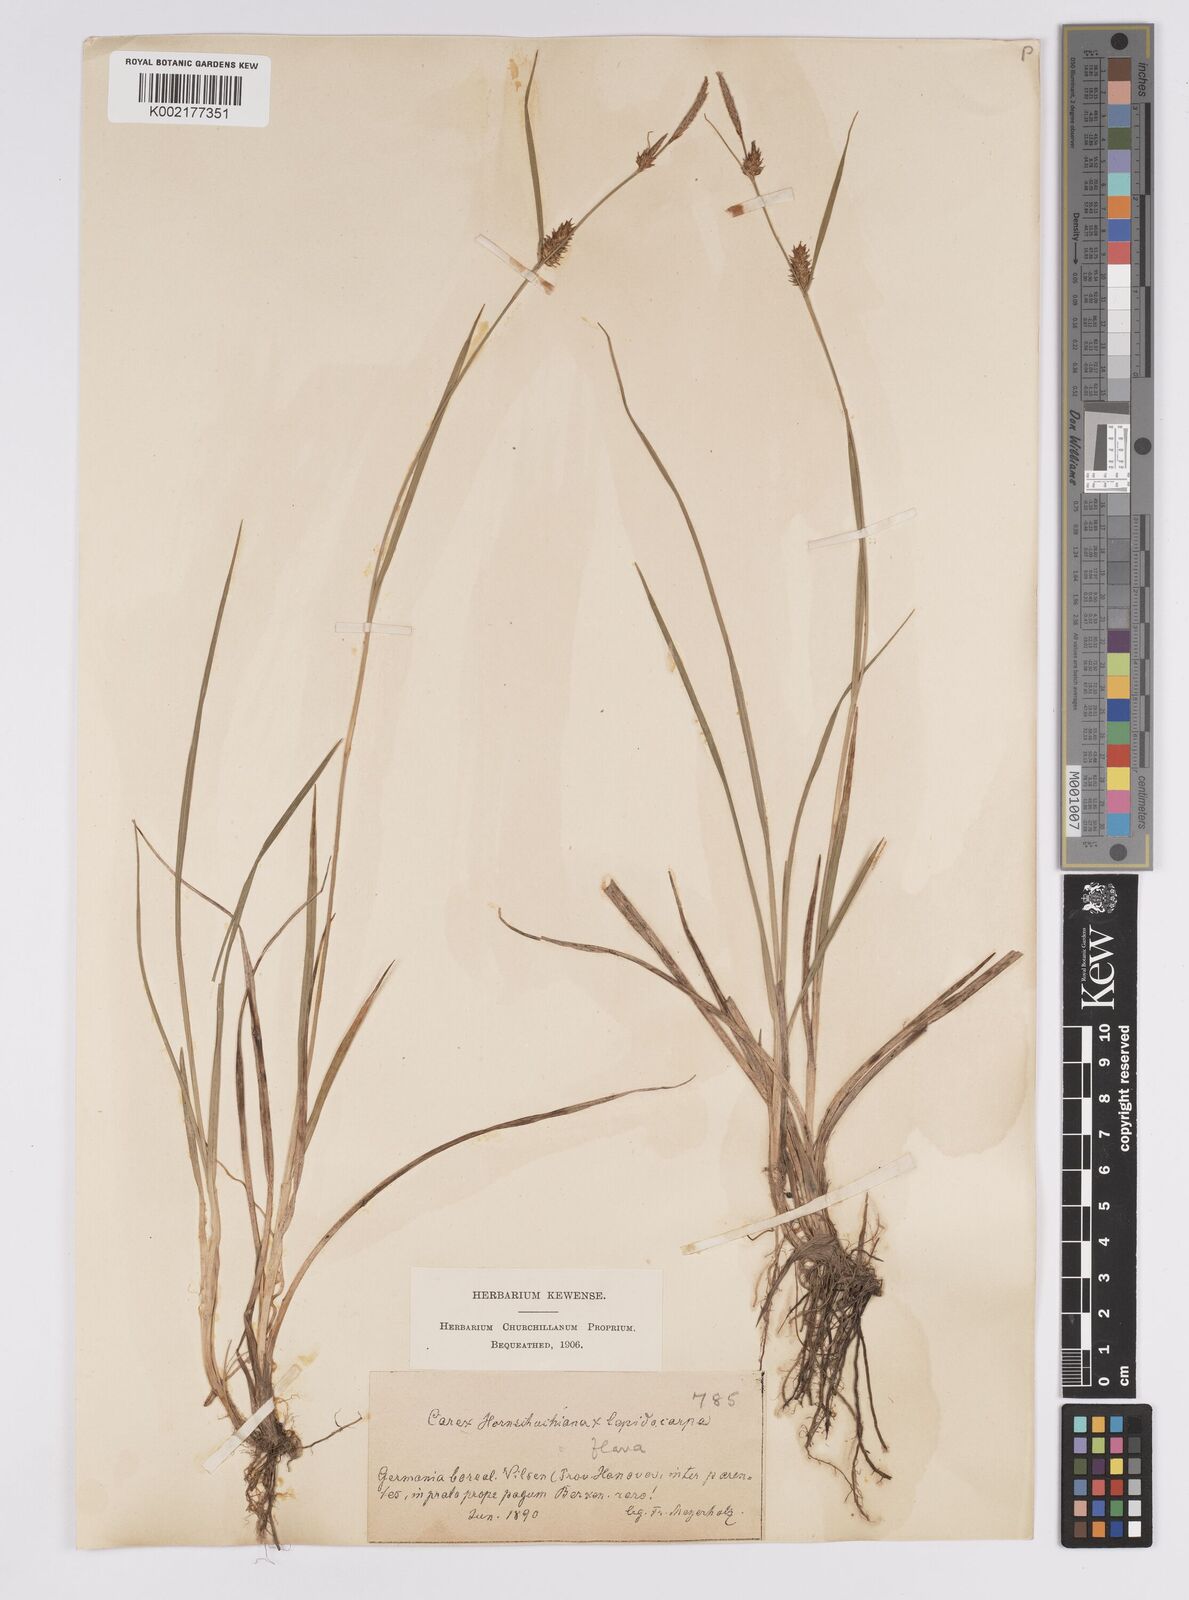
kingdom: Plantae
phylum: Tracheophyta
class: Liliopsida
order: Poales
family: Cyperaceae
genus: Carex
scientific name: Carex hostiana
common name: Tawny sedge
